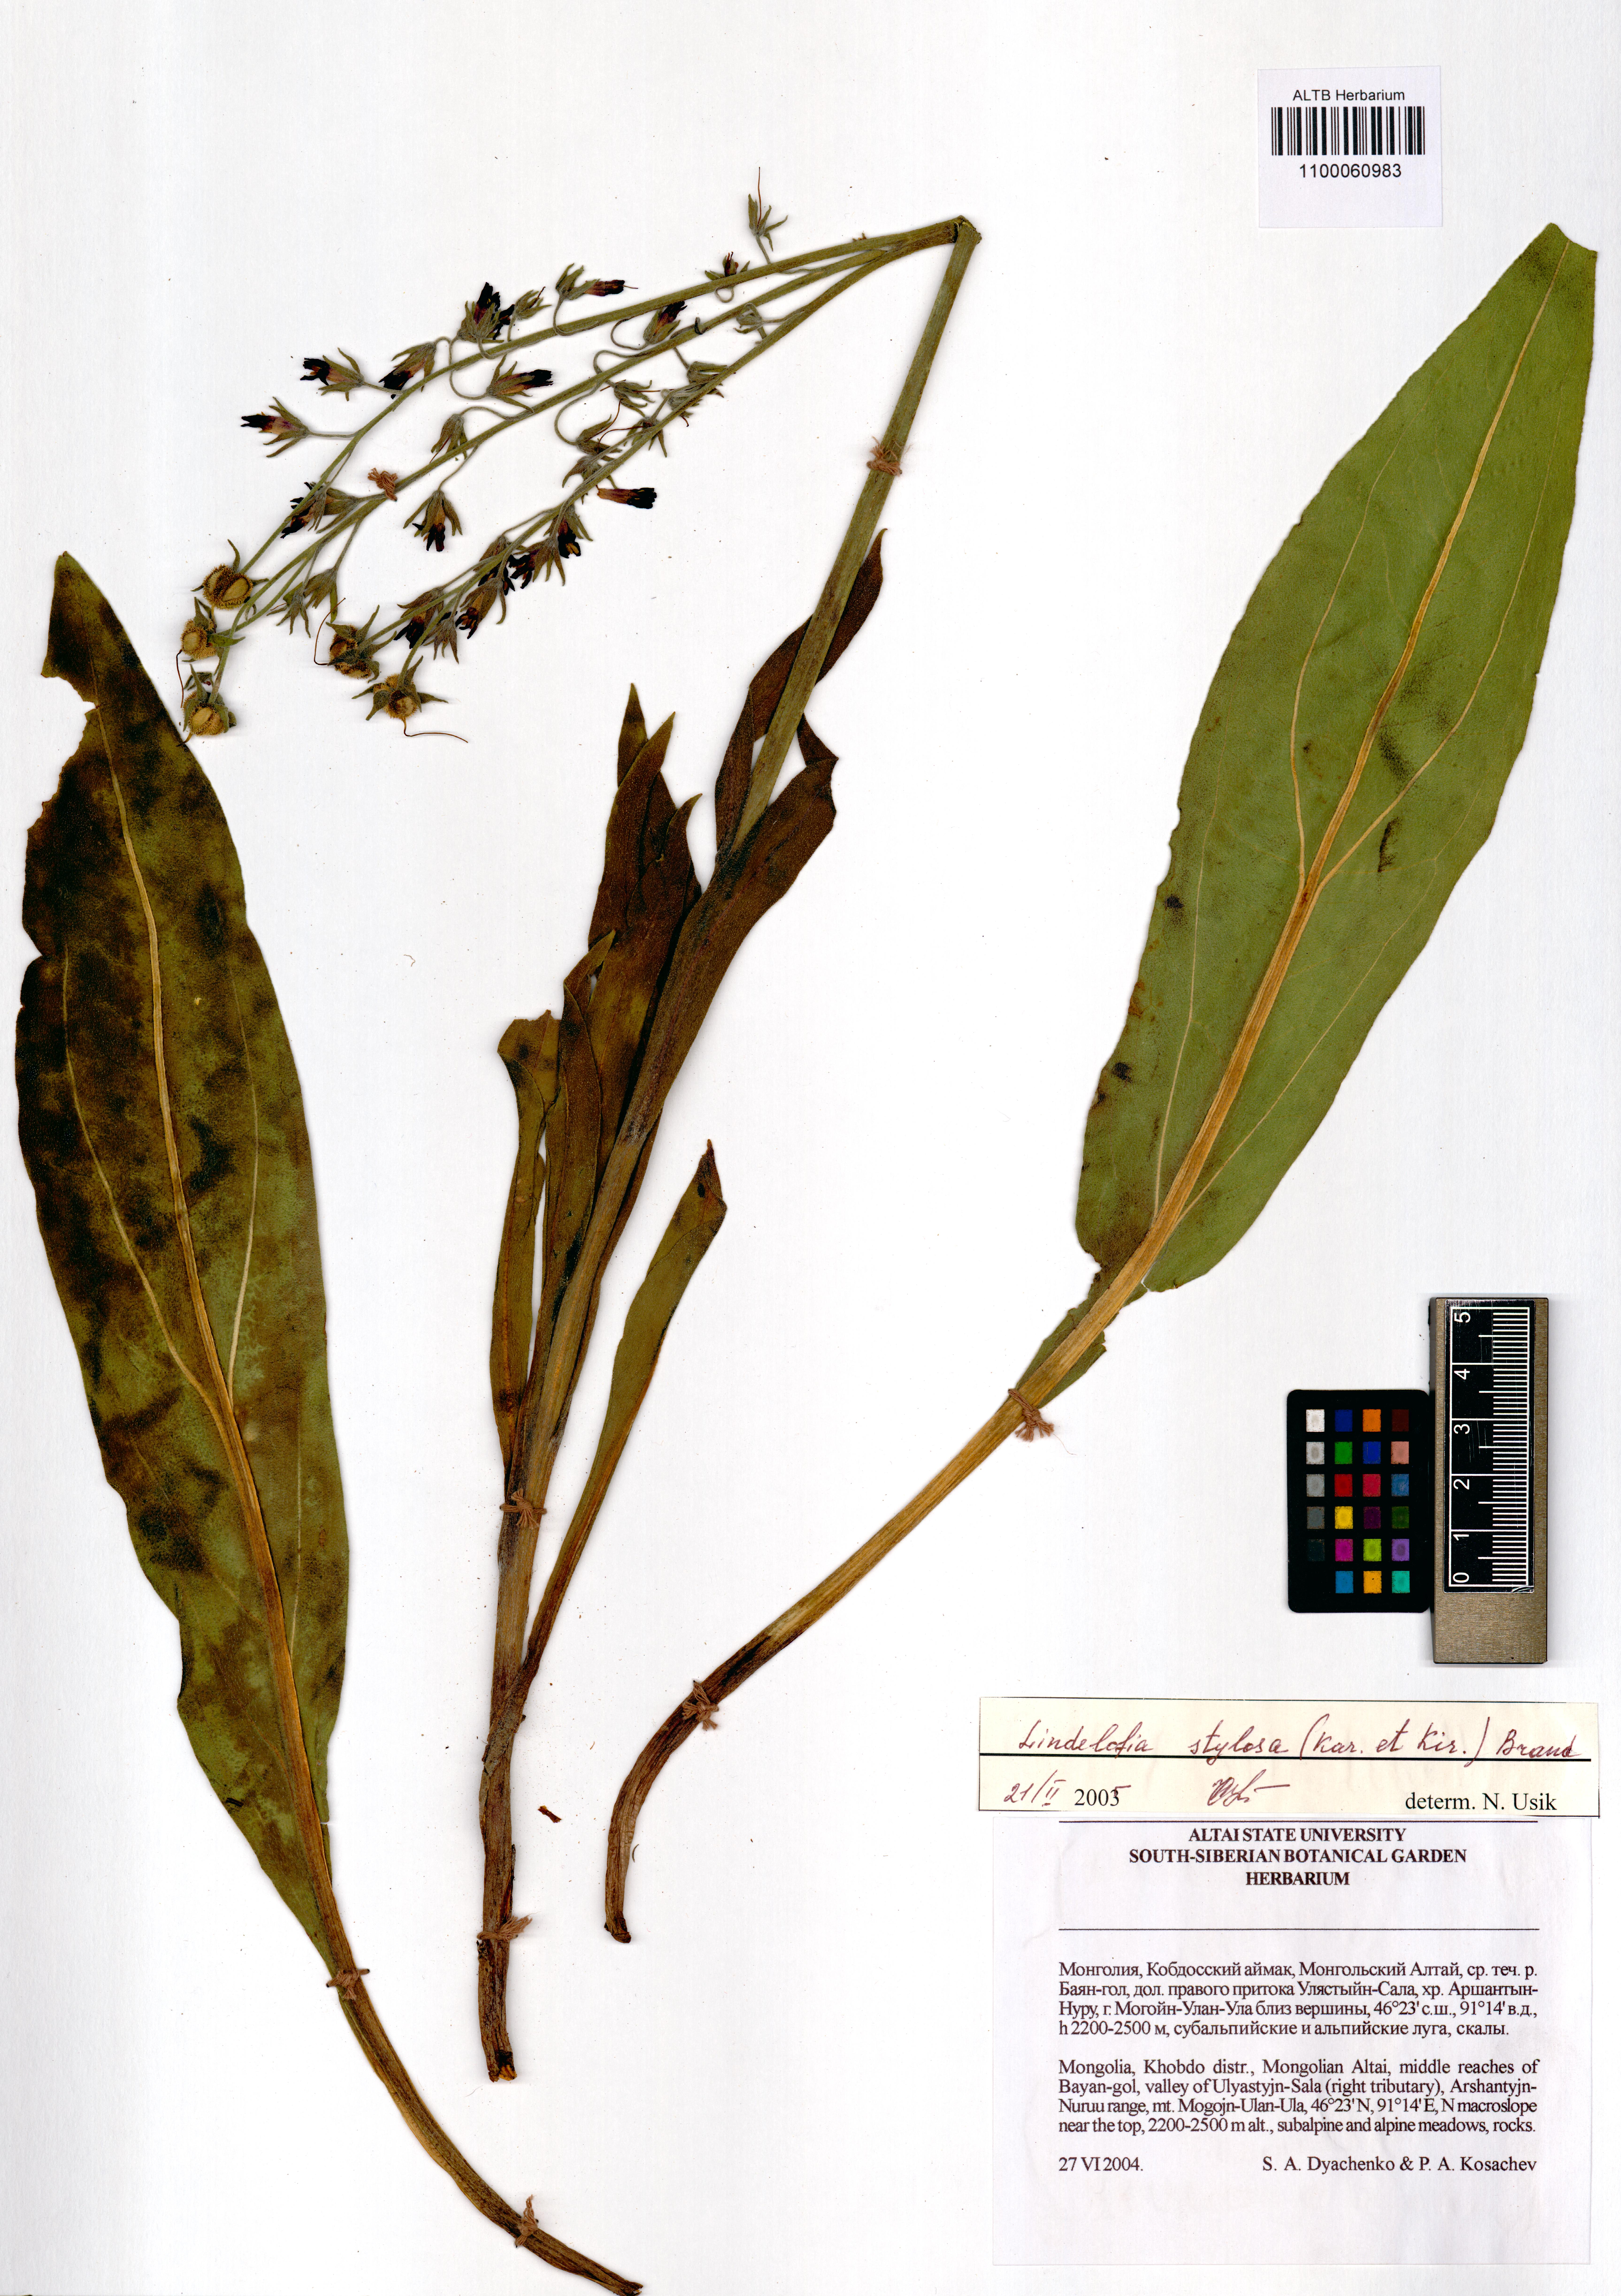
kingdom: Plantae
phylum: Tracheophyta
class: Magnoliopsida
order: Boraginales
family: Boraginaceae
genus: Lindelofia
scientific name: Lindelofia stylosa
